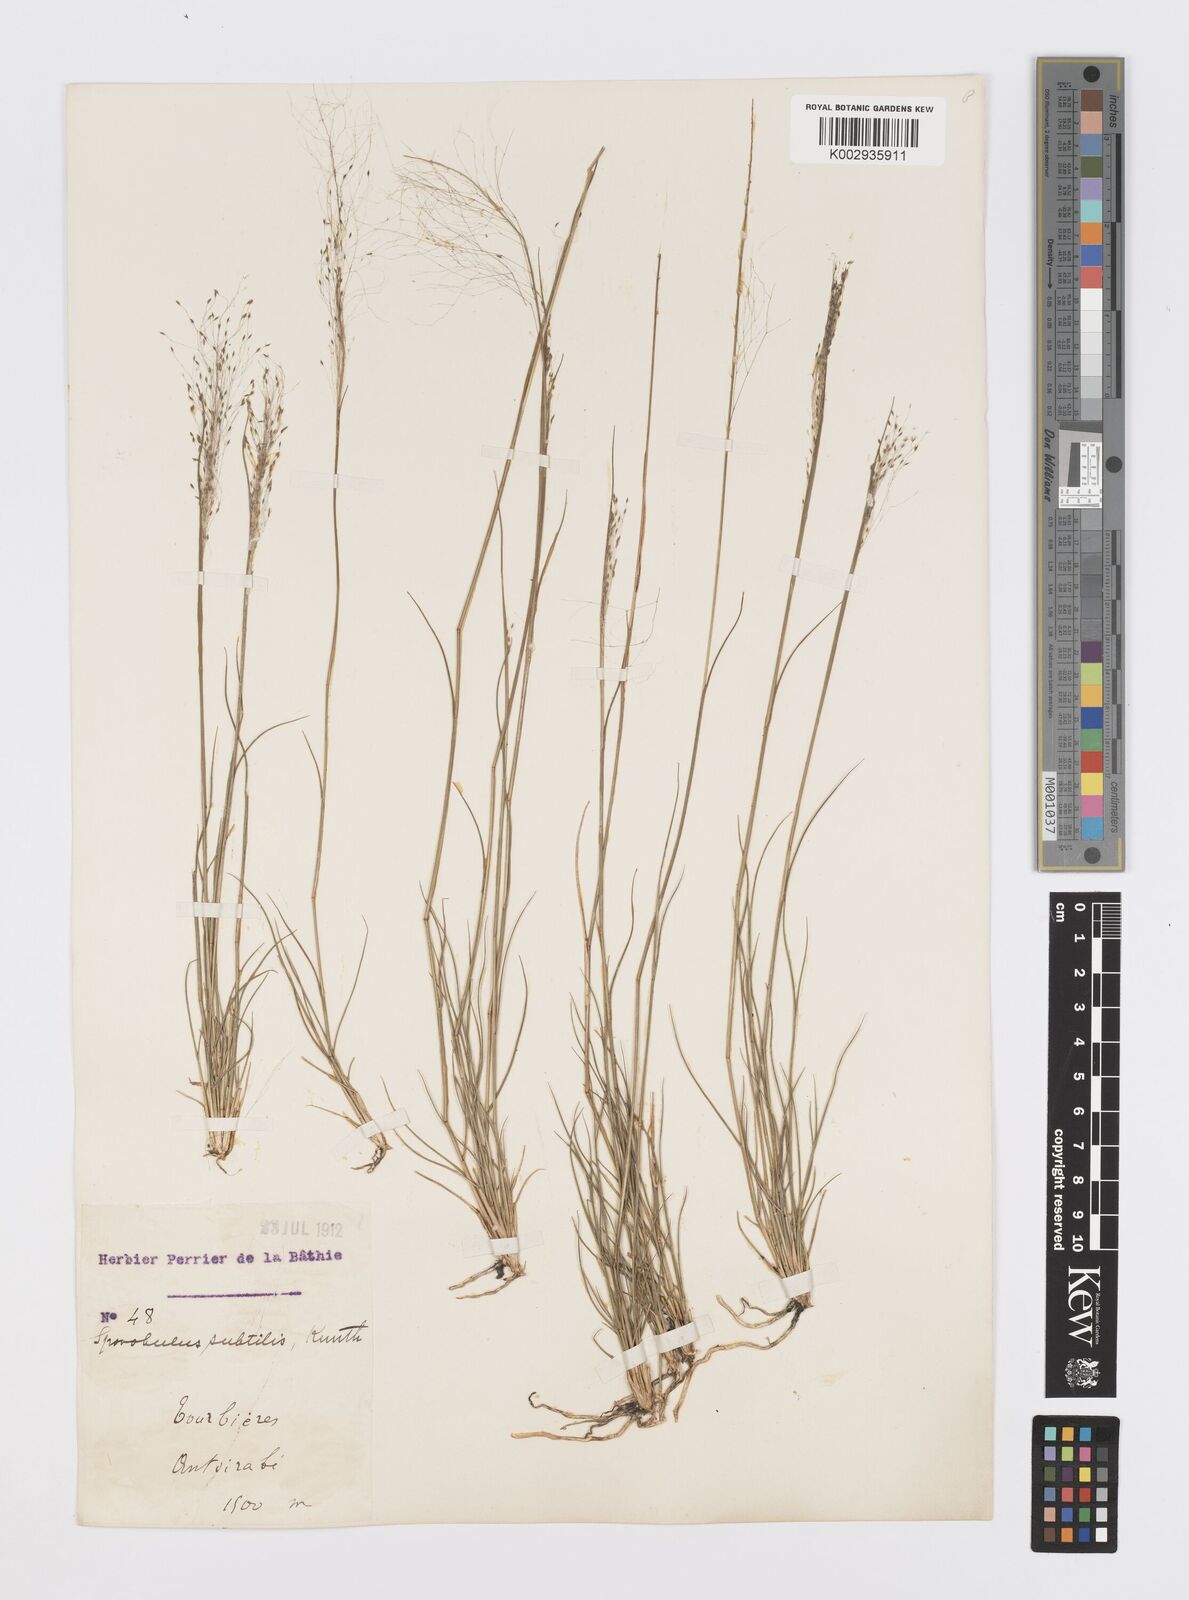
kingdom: Plantae
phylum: Tracheophyta
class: Liliopsida
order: Poales
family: Poaceae
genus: Sporobolus
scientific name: Sporobolus subtilis
